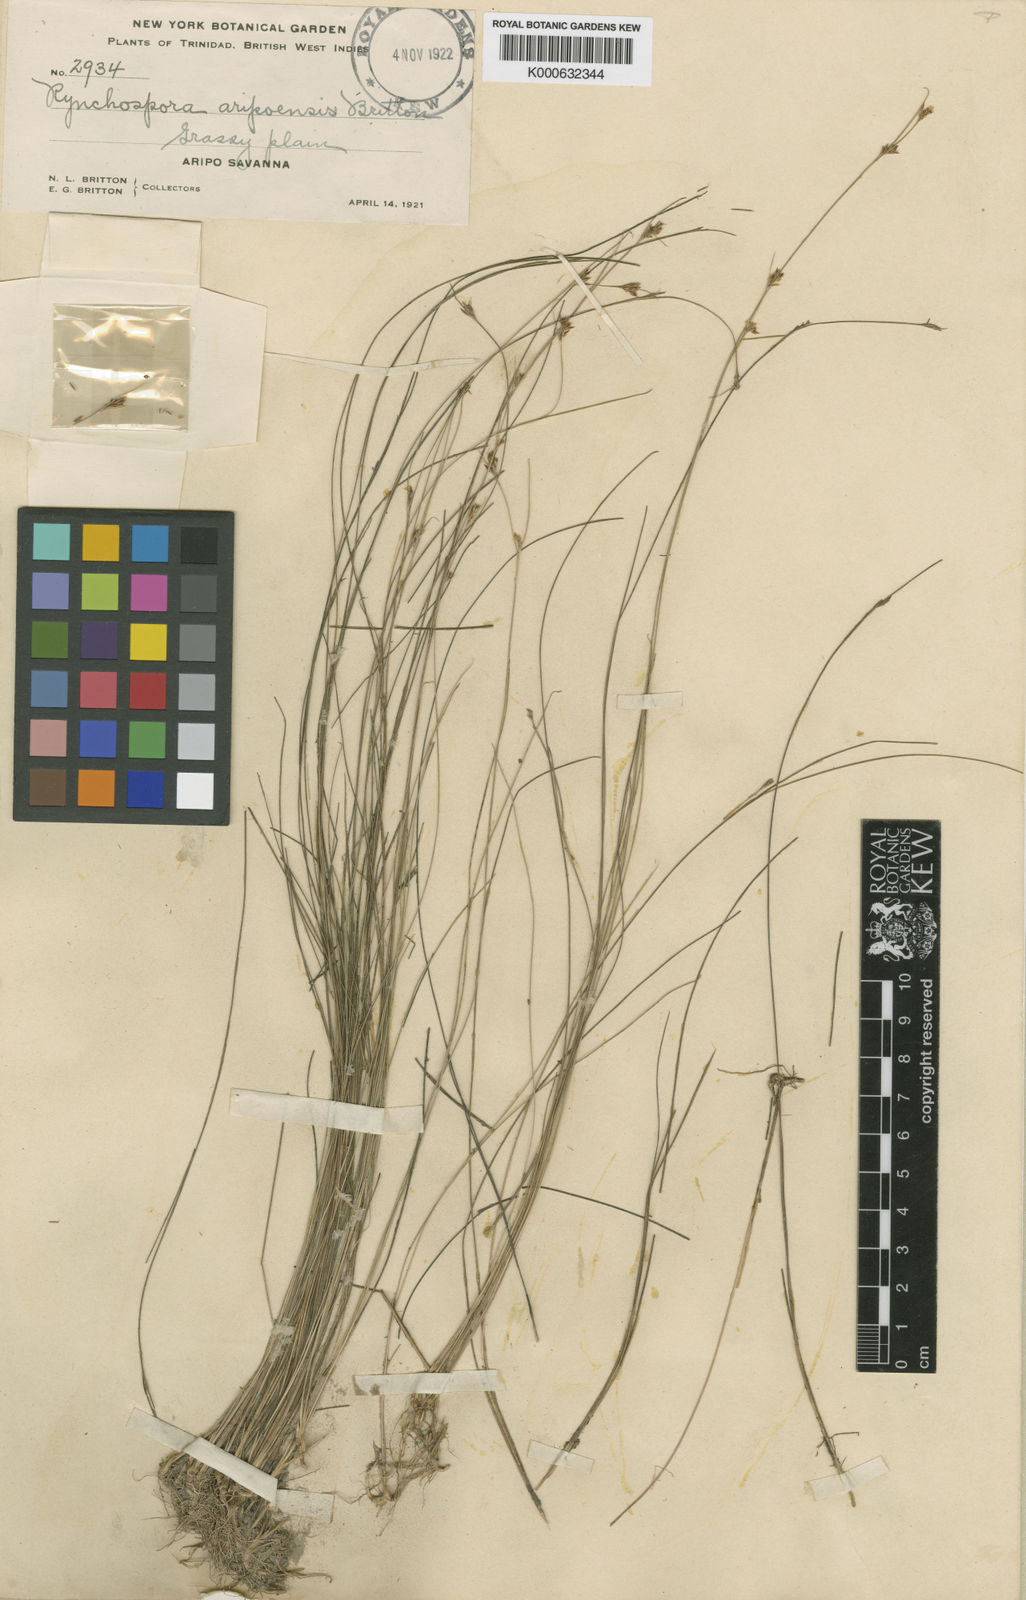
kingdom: Plantae
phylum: Tracheophyta
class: Liliopsida
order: Poales
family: Cyperaceae
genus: Rhynchospora
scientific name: Rhynchospora aripoensis
